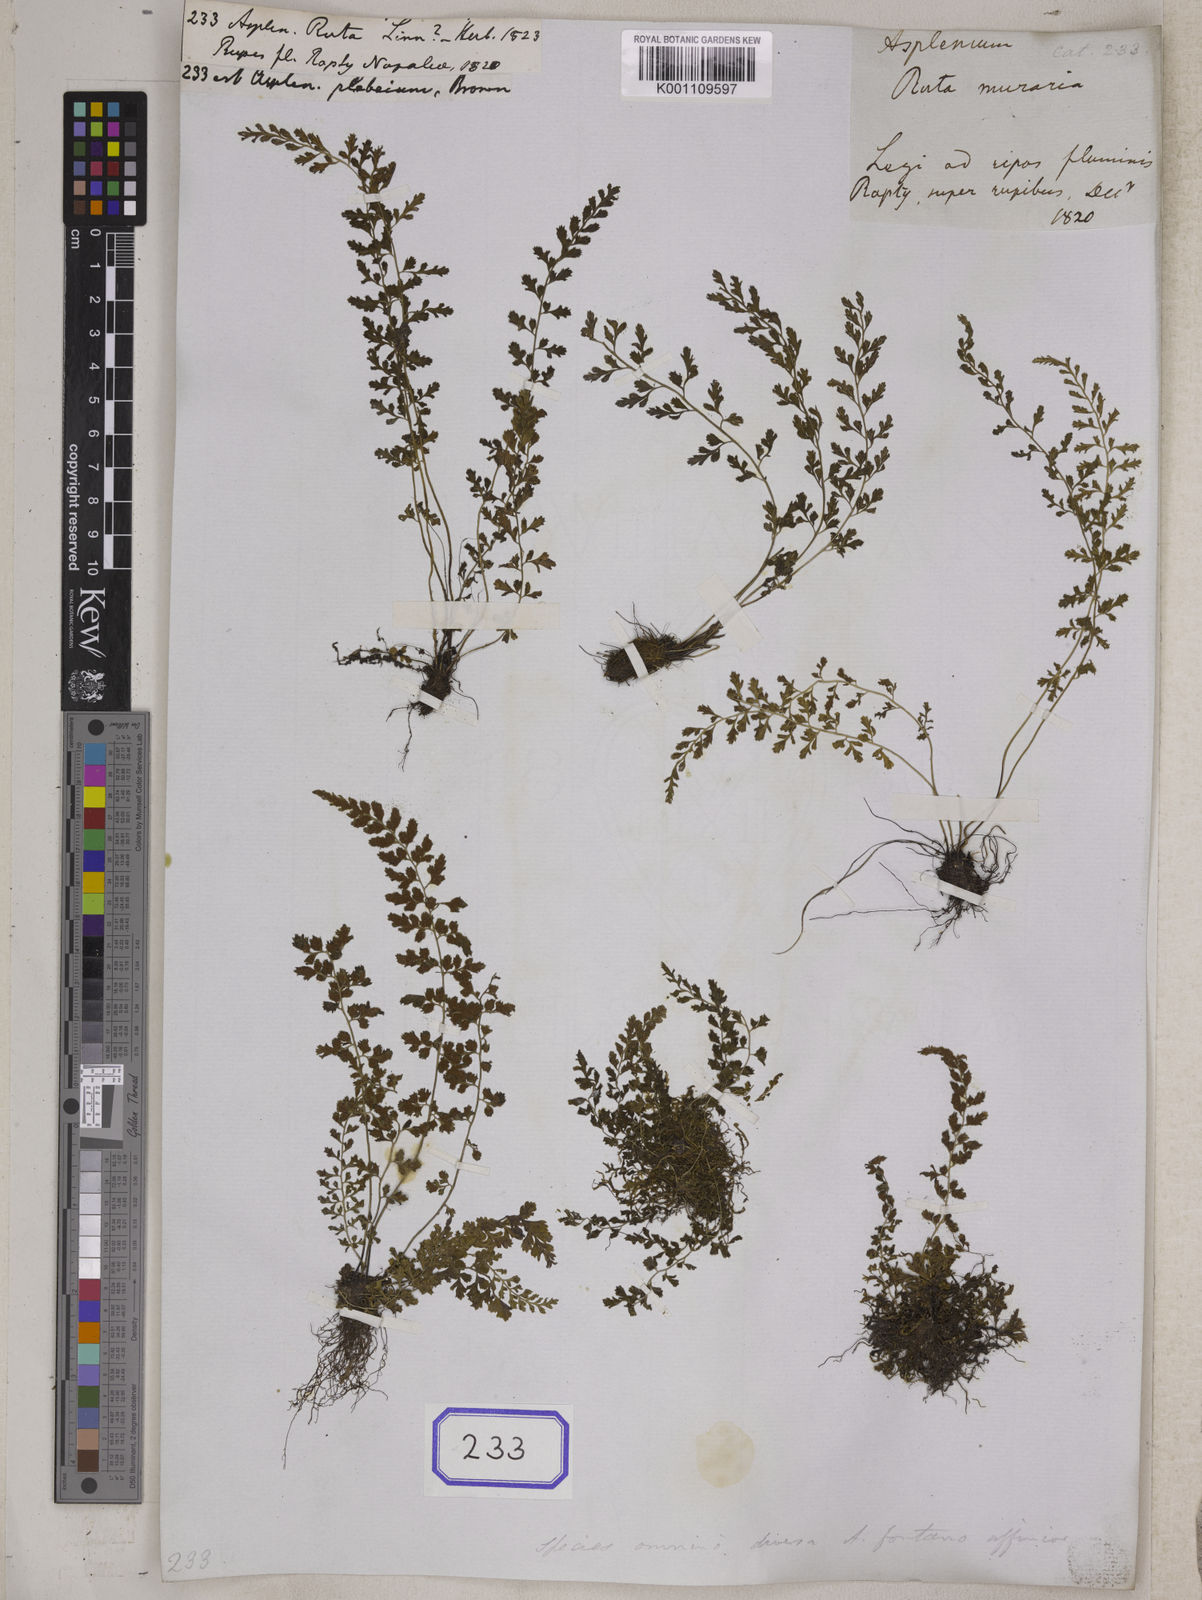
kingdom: Plantae
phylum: Tracheophyta
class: Polypodiopsida
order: Polypodiales
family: Aspleniaceae
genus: Asplenium
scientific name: Asplenium
